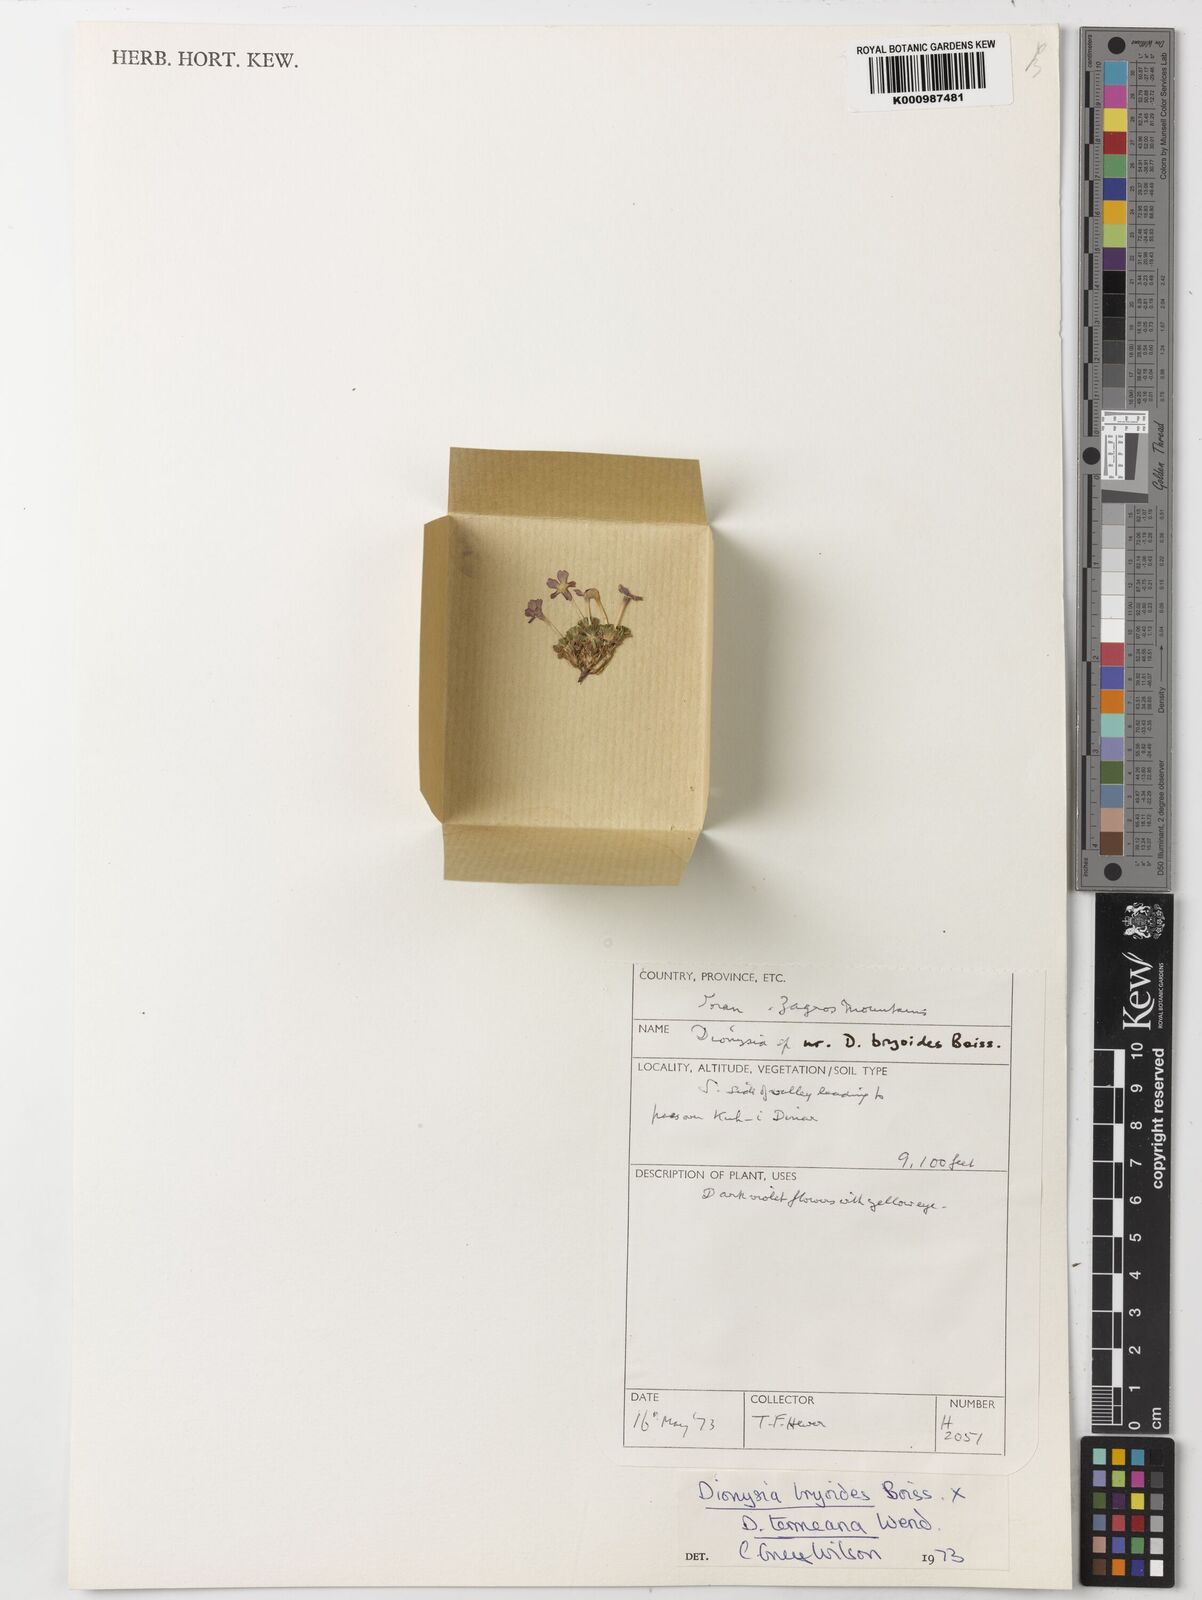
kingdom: Plantae
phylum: Tracheophyta
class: Magnoliopsida
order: Ericales
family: Primulaceae
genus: Dionysia
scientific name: Dionysia bryoides
